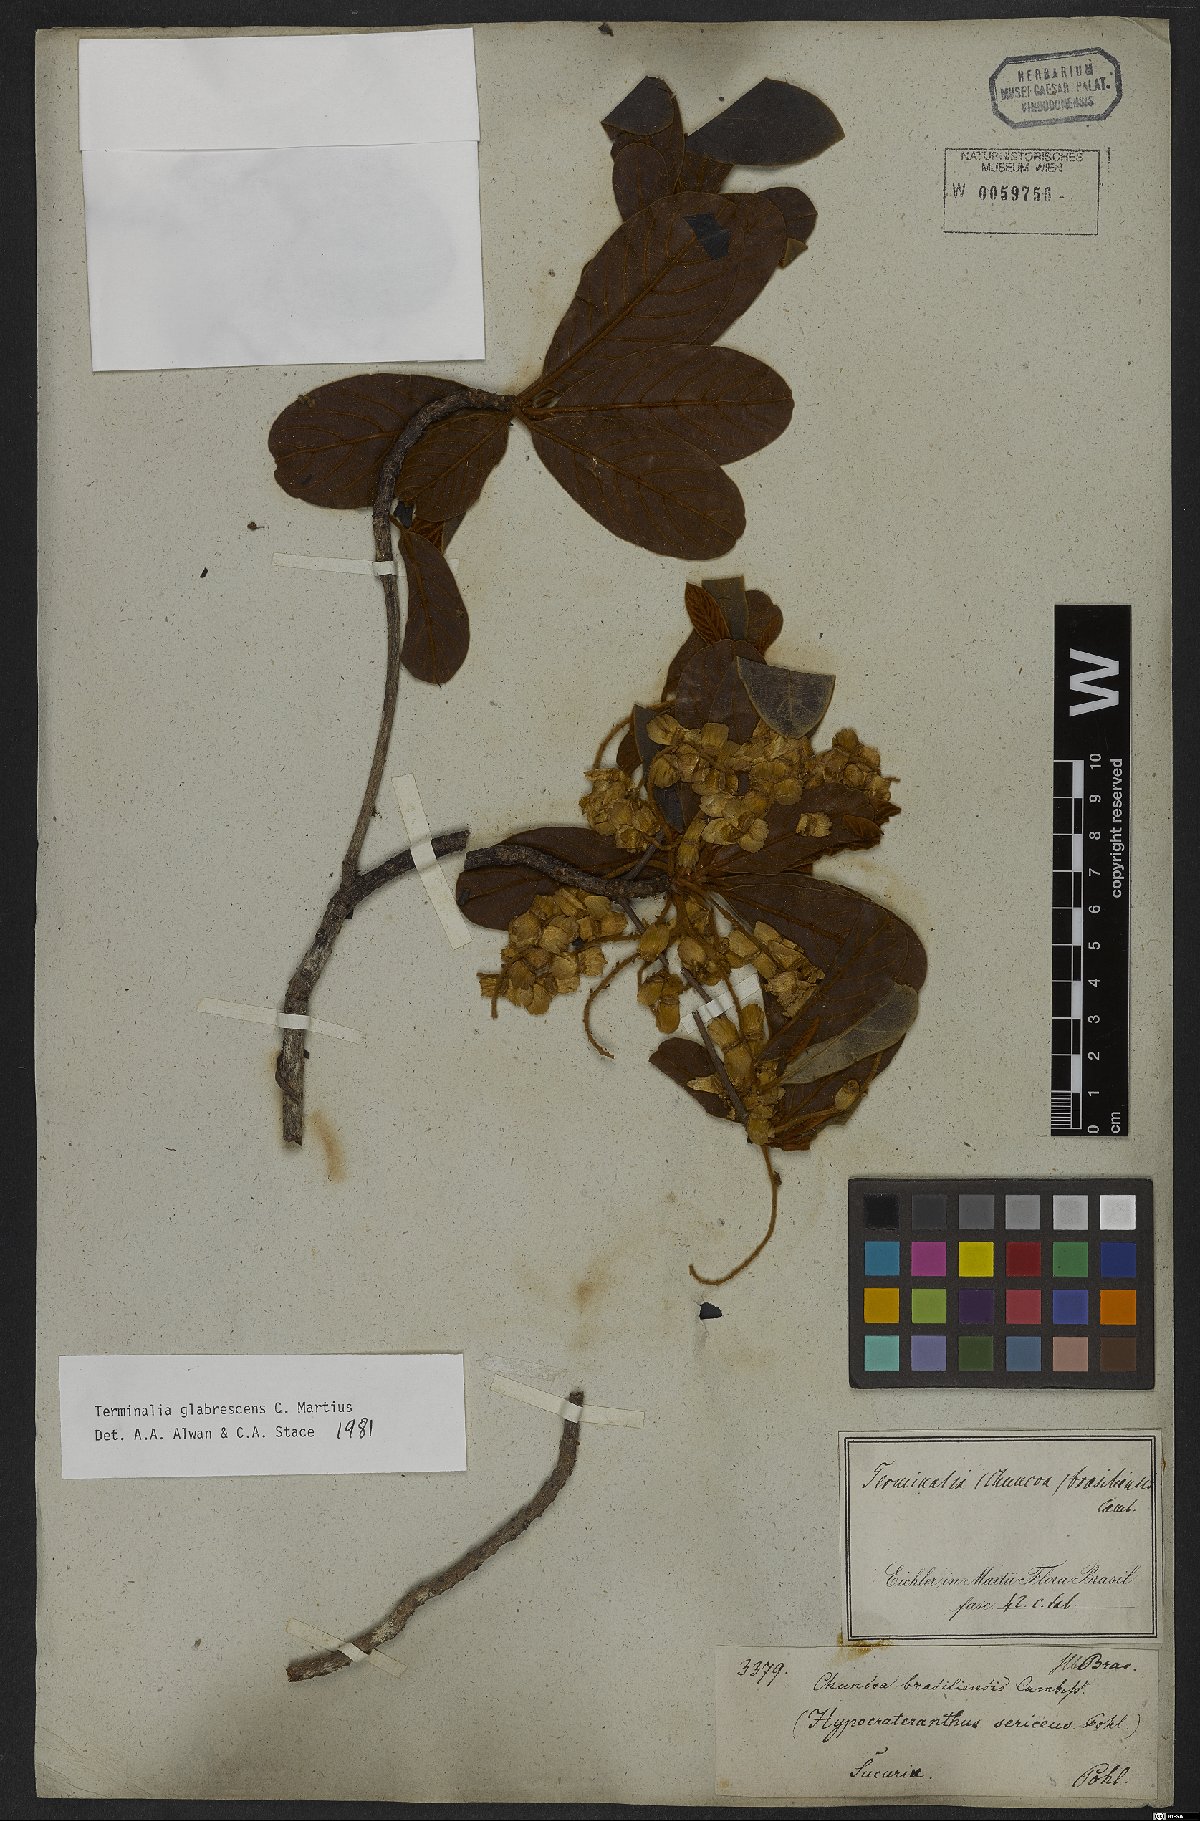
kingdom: Plantae
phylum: Tracheophyta
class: Magnoliopsida
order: Myrtales
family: Combretaceae
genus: Terminalia
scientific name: Terminalia glabrescens
